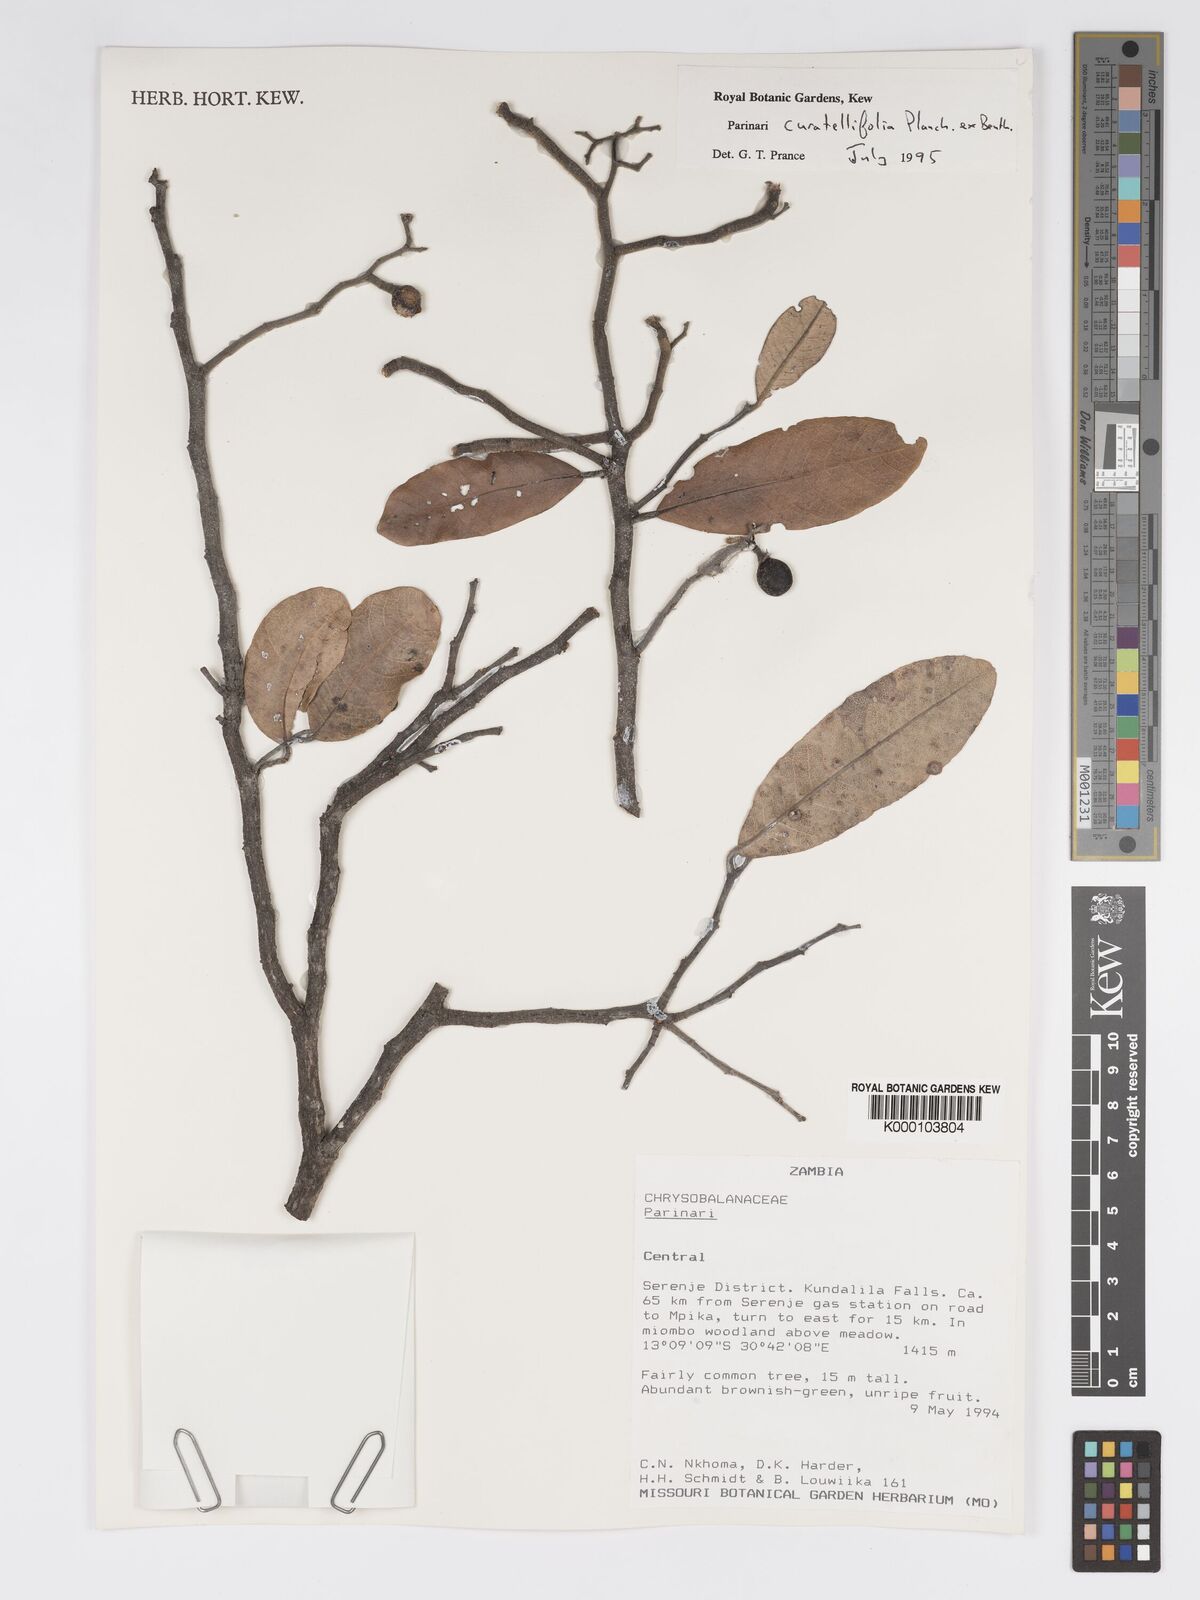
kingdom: Plantae
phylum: Tracheophyta
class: Magnoliopsida
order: Malpighiales
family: Chrysobalanaceae
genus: Parinari
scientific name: Parinari curatellifolia
